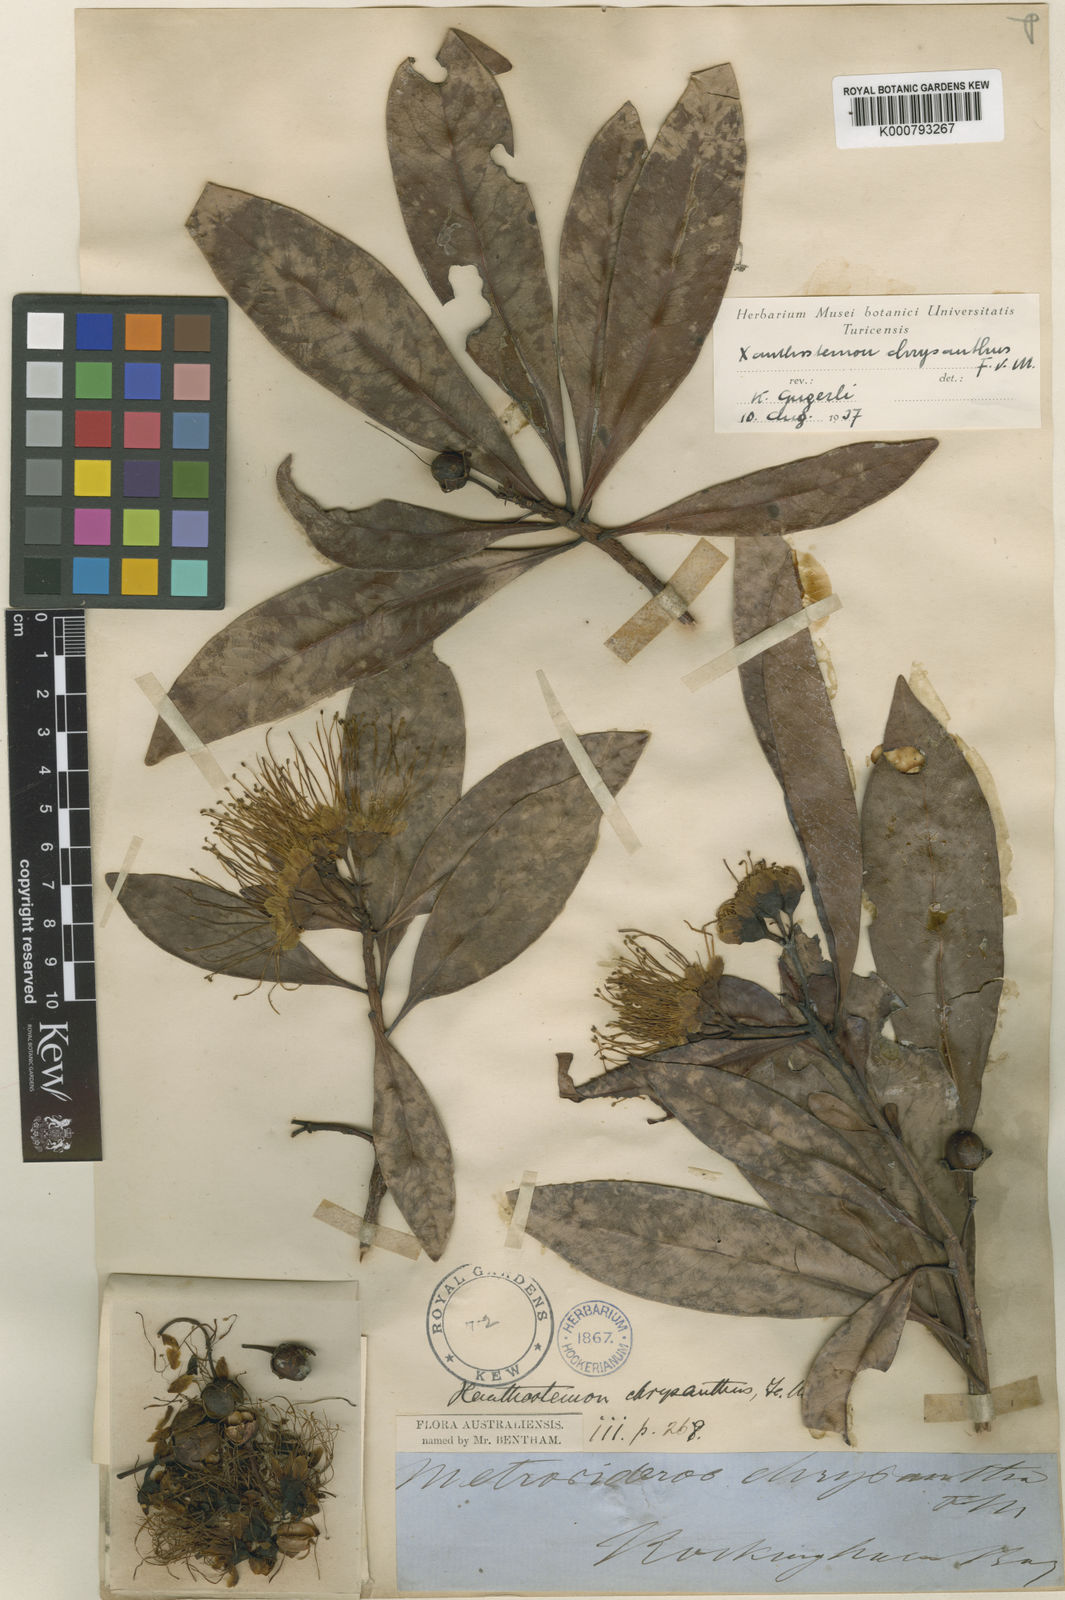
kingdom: Plantae
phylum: Tracheophyta
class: Magnoliopsida
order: Myrtales
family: Myrtaceae
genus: Xanthostemon
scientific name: Xanthostemon chrysanthus
